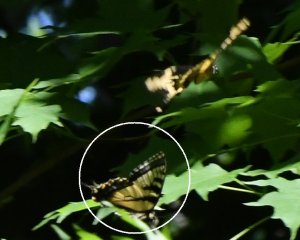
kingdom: Animalia
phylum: Arthropoda
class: Insecta
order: Lepidoptera
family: Papilionidae
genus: Pterourus
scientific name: Pterourus canadensis
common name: Canadian Tiger Swallowtail
